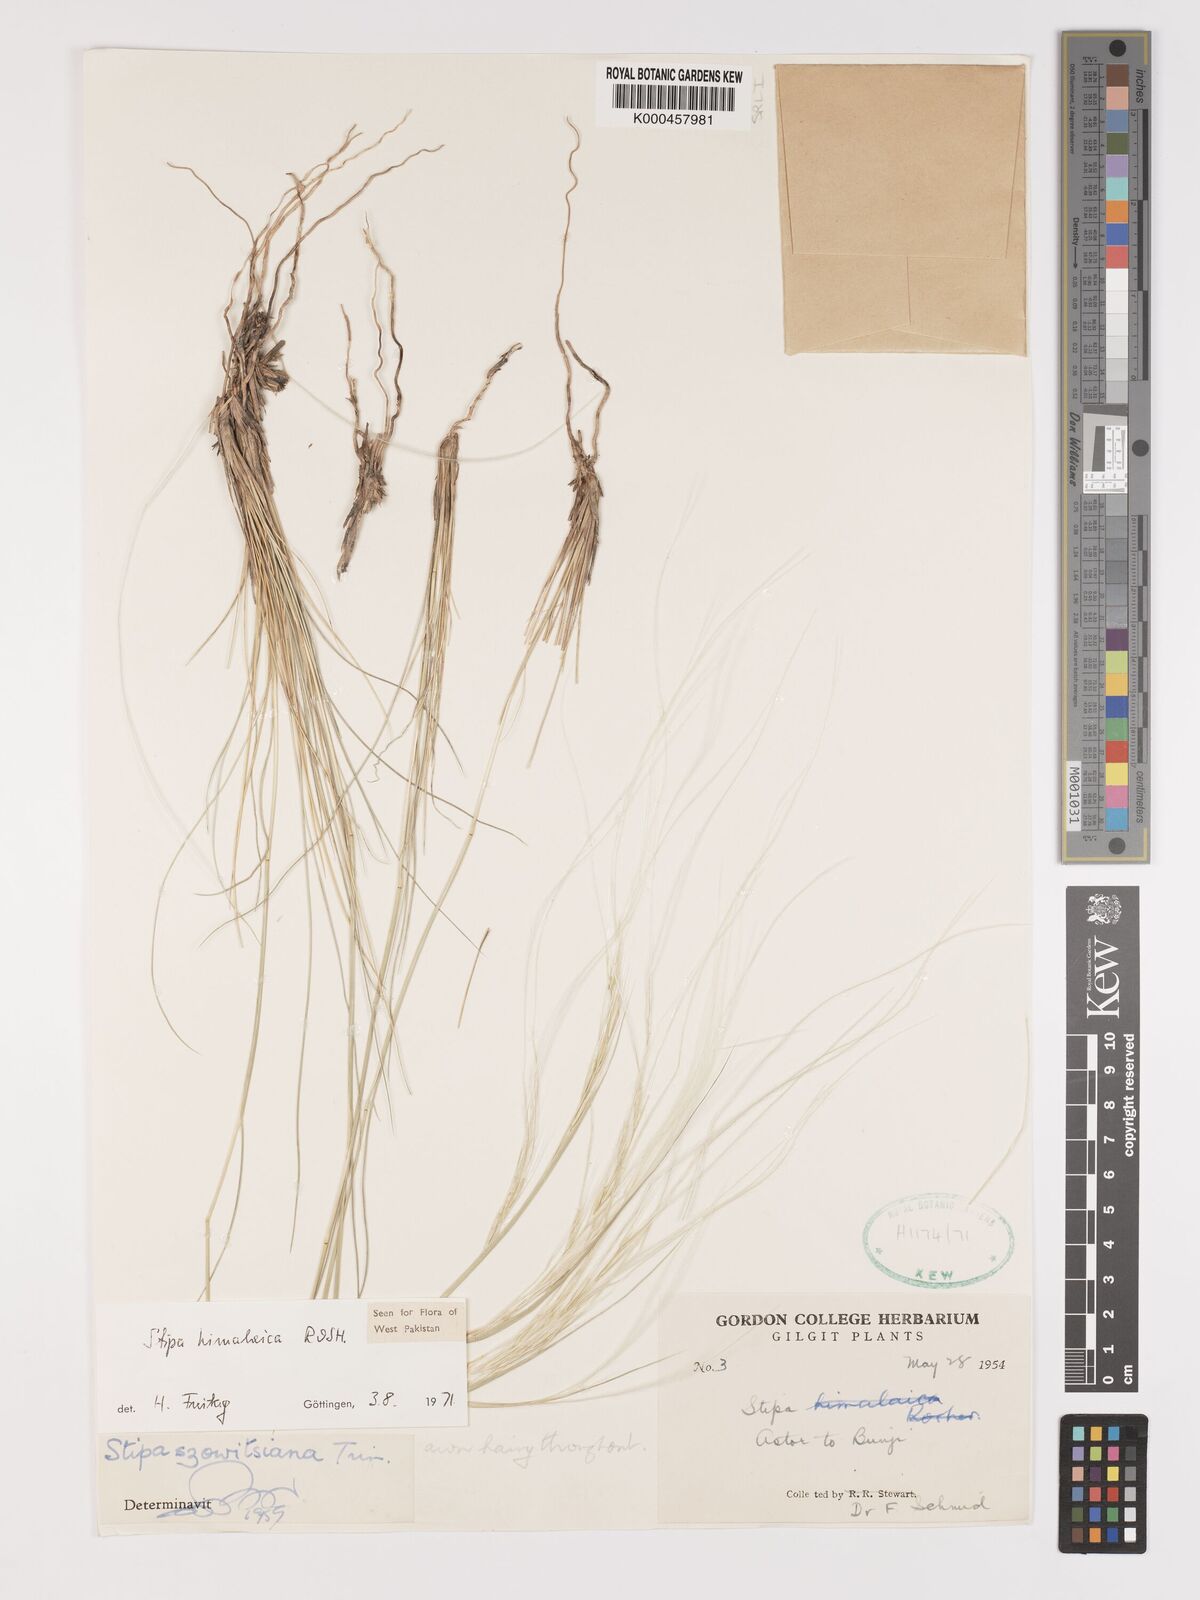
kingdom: Plantae
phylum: Tracheophyta
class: Liliopsida
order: Poales
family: Poaceae
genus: Stipa
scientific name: Stipa himalaica
